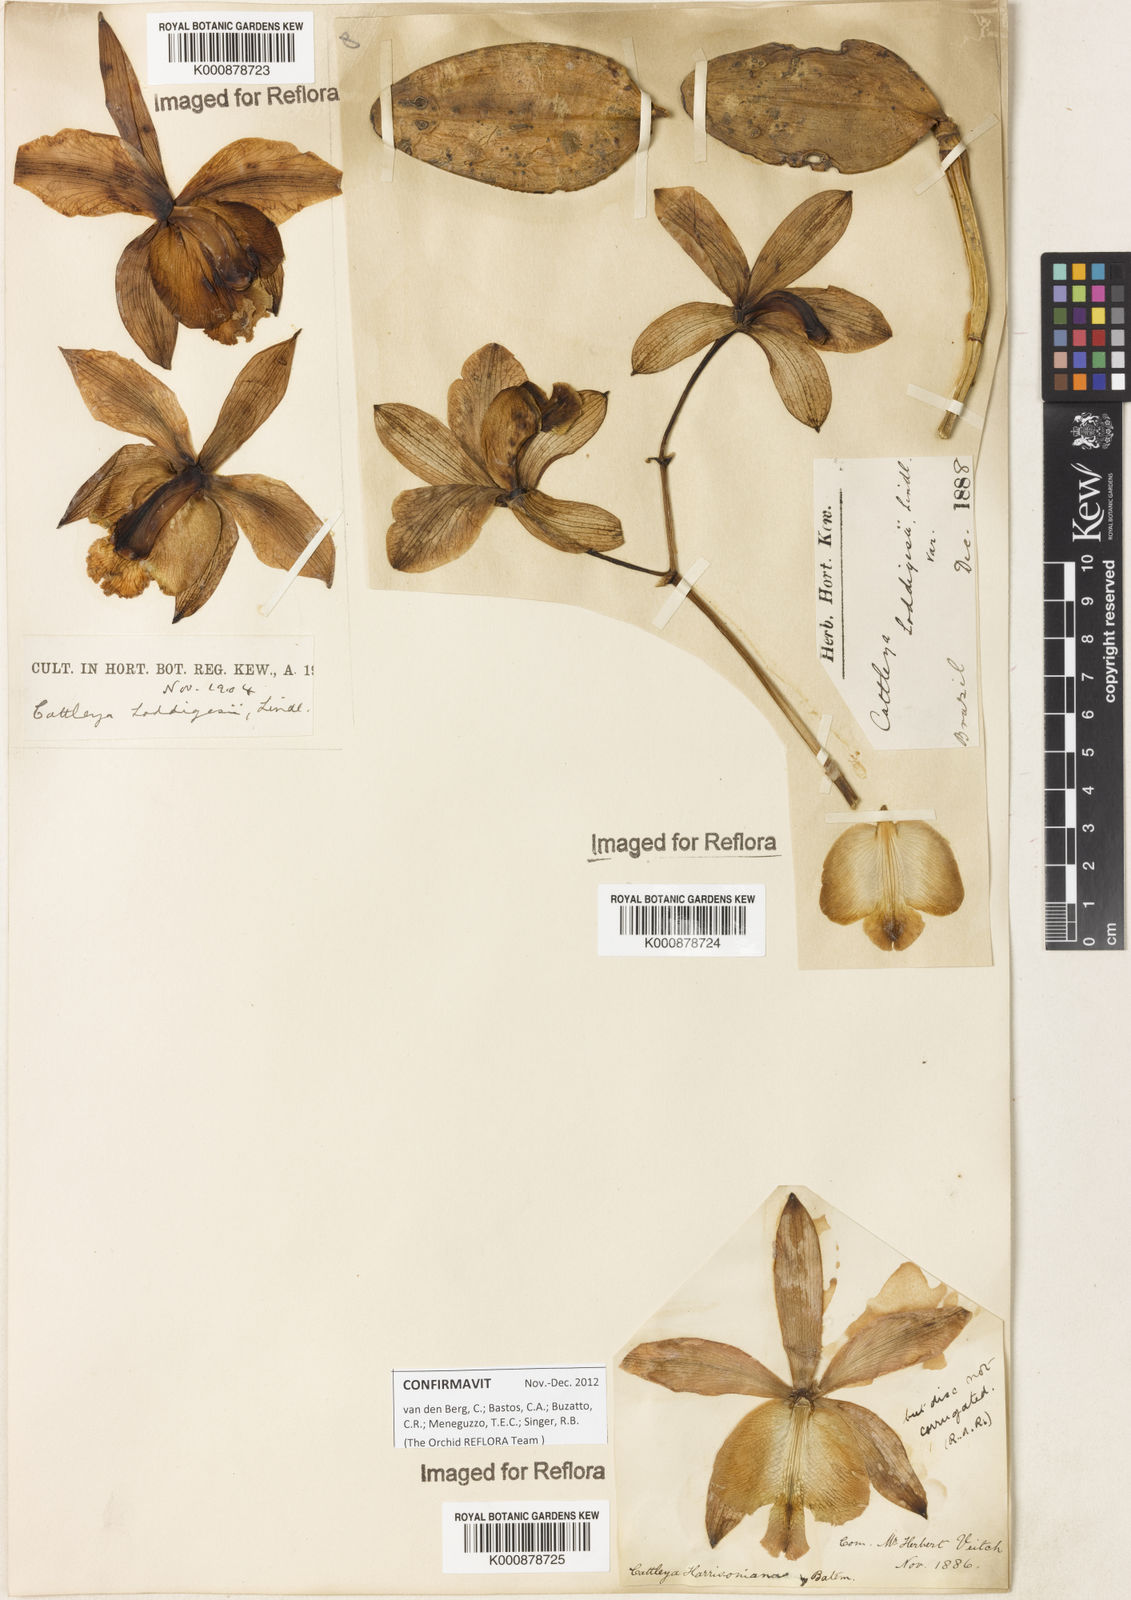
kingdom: Plantae
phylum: Tracheophyta
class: Liliopsida
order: Asparagales
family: Orchidaceae
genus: Cattleya
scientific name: Cattleya loddigesii
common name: Loddiges's cattleya
